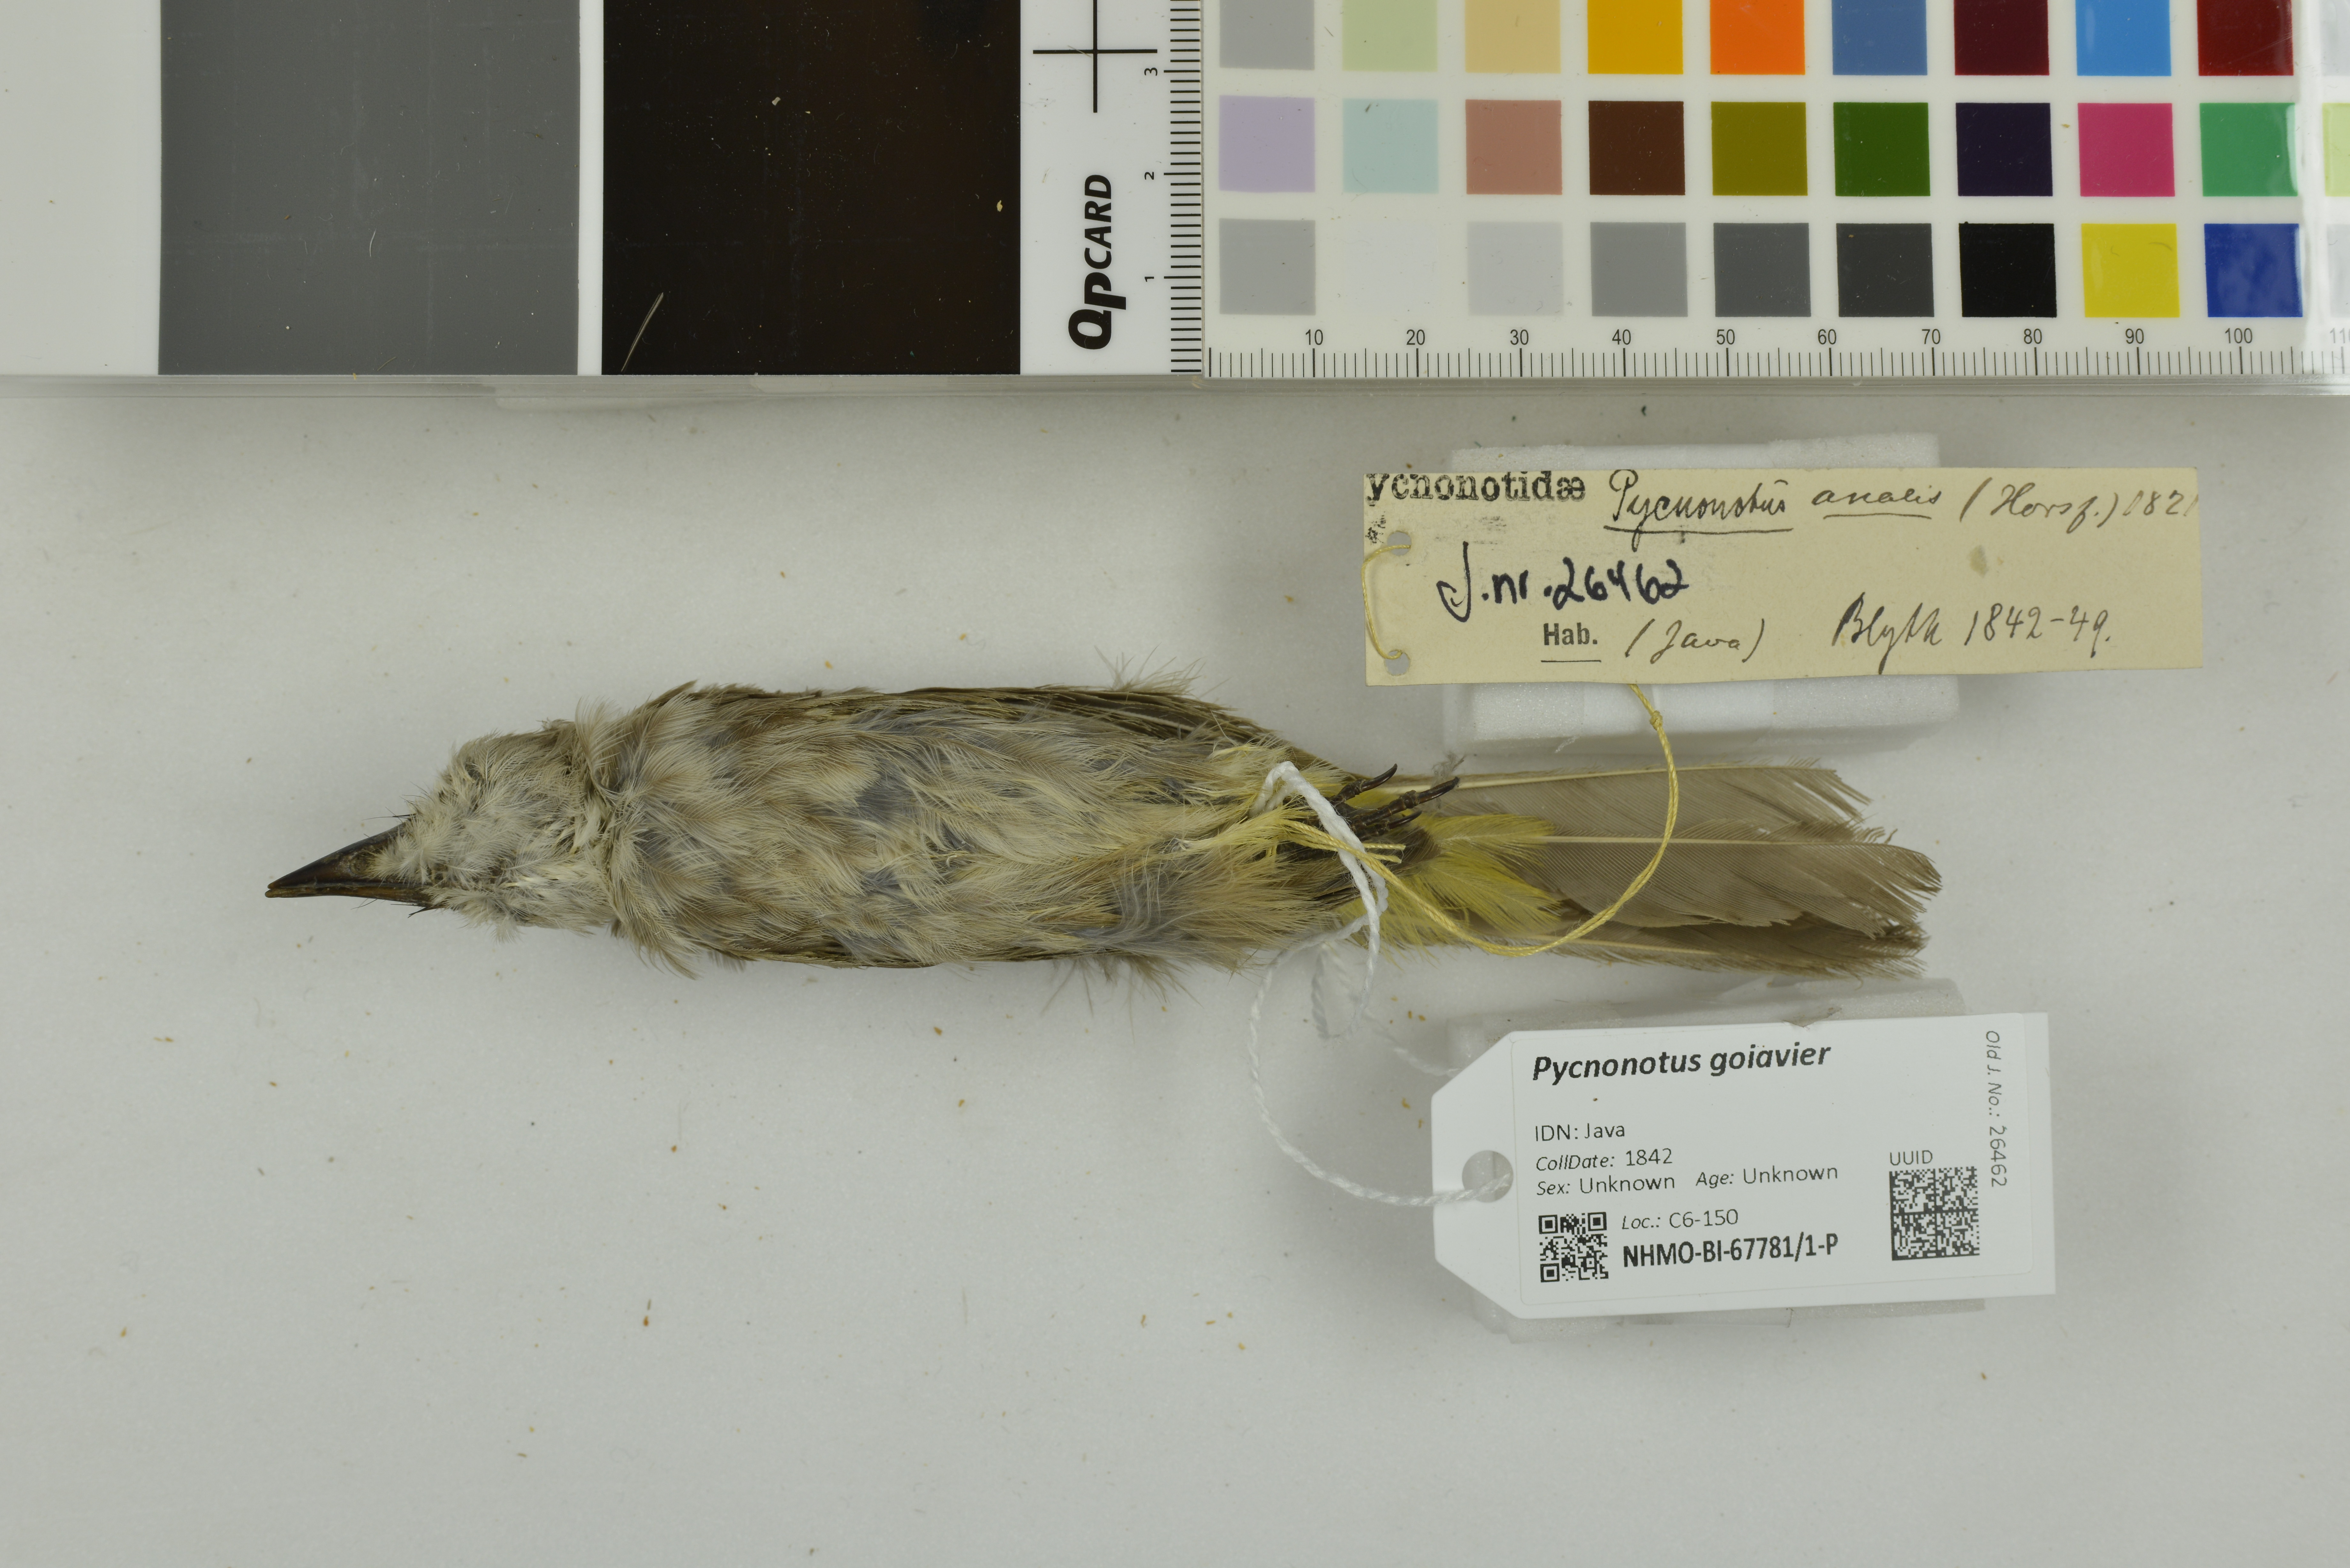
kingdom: Animalia
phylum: Chordata
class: Aves
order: Passeriformes
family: Pycnonotidae
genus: Pycnonotus
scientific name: Pycnonotus goiavier
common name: Yellow-vented bulbul
